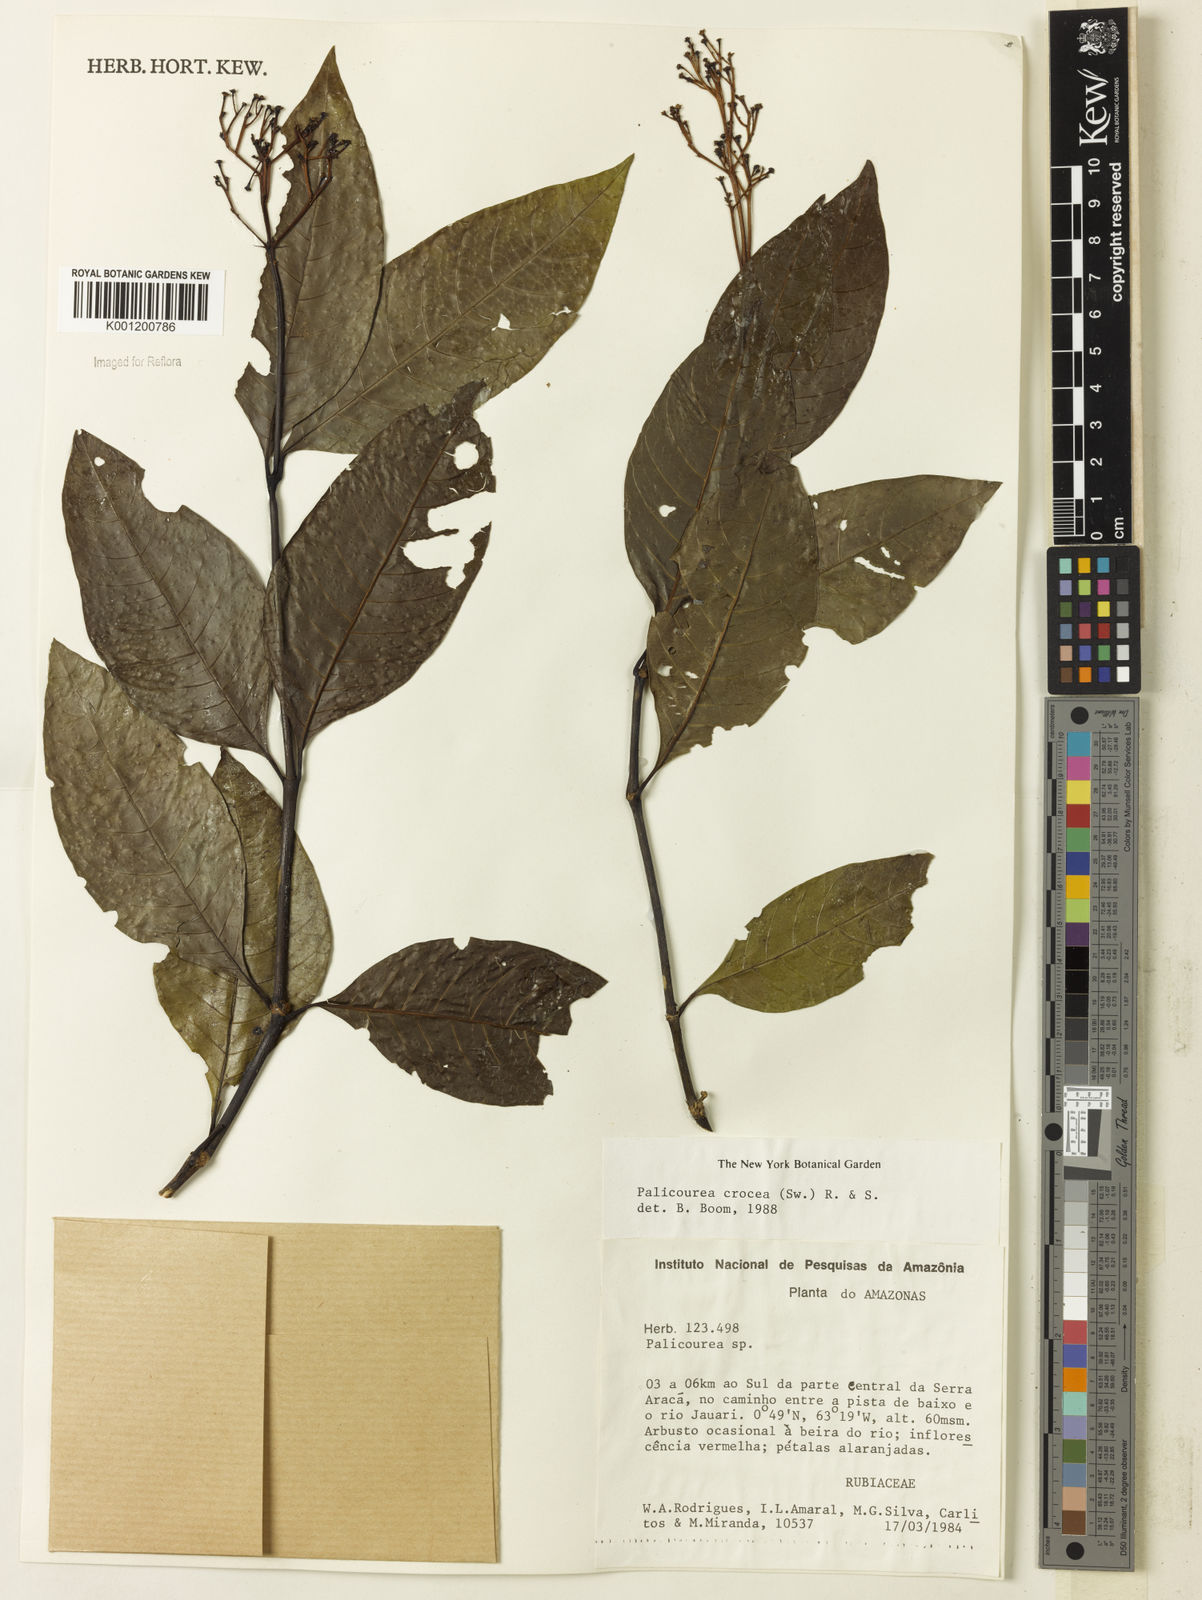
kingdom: Plantae
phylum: Tracheophyta
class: Magnoliopsida
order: Gentianales
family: Rubiaceae
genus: Palicourea
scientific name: Palicourea crocea
